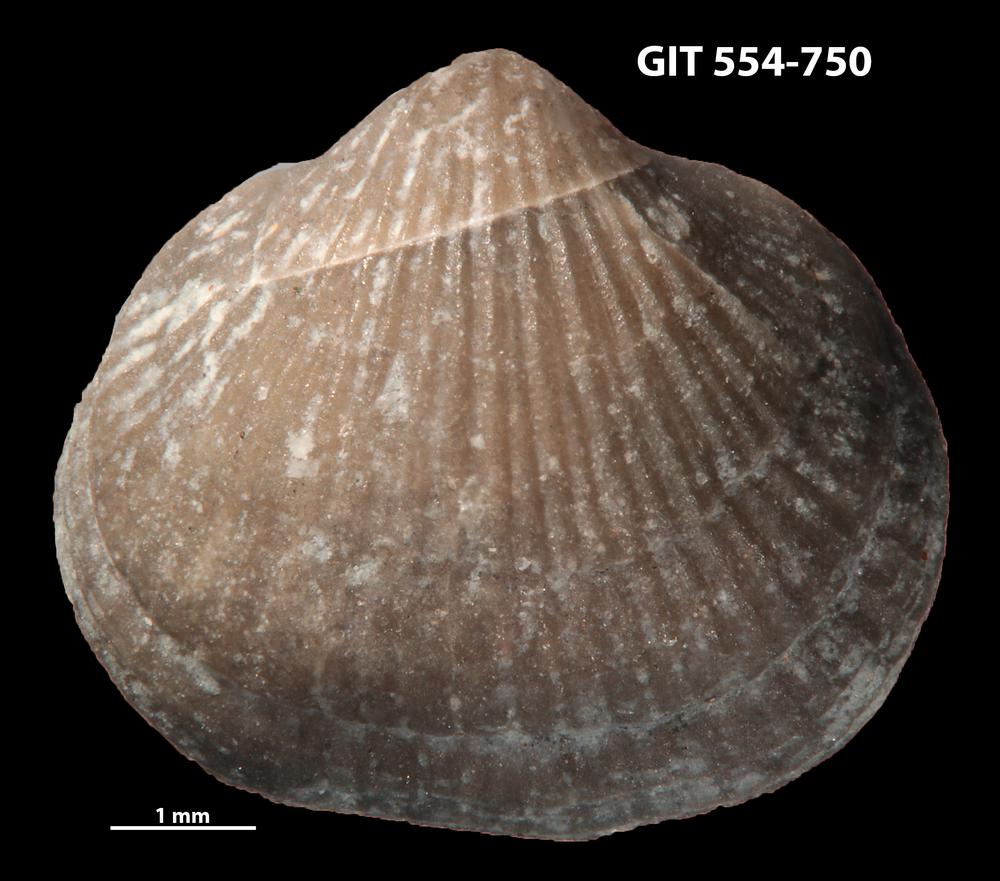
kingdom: Animalia
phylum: Brachiopoda
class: Rhynchonellata
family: Rhipidomellidae
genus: Mendacella
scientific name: Mendacella Orthis hybrida
